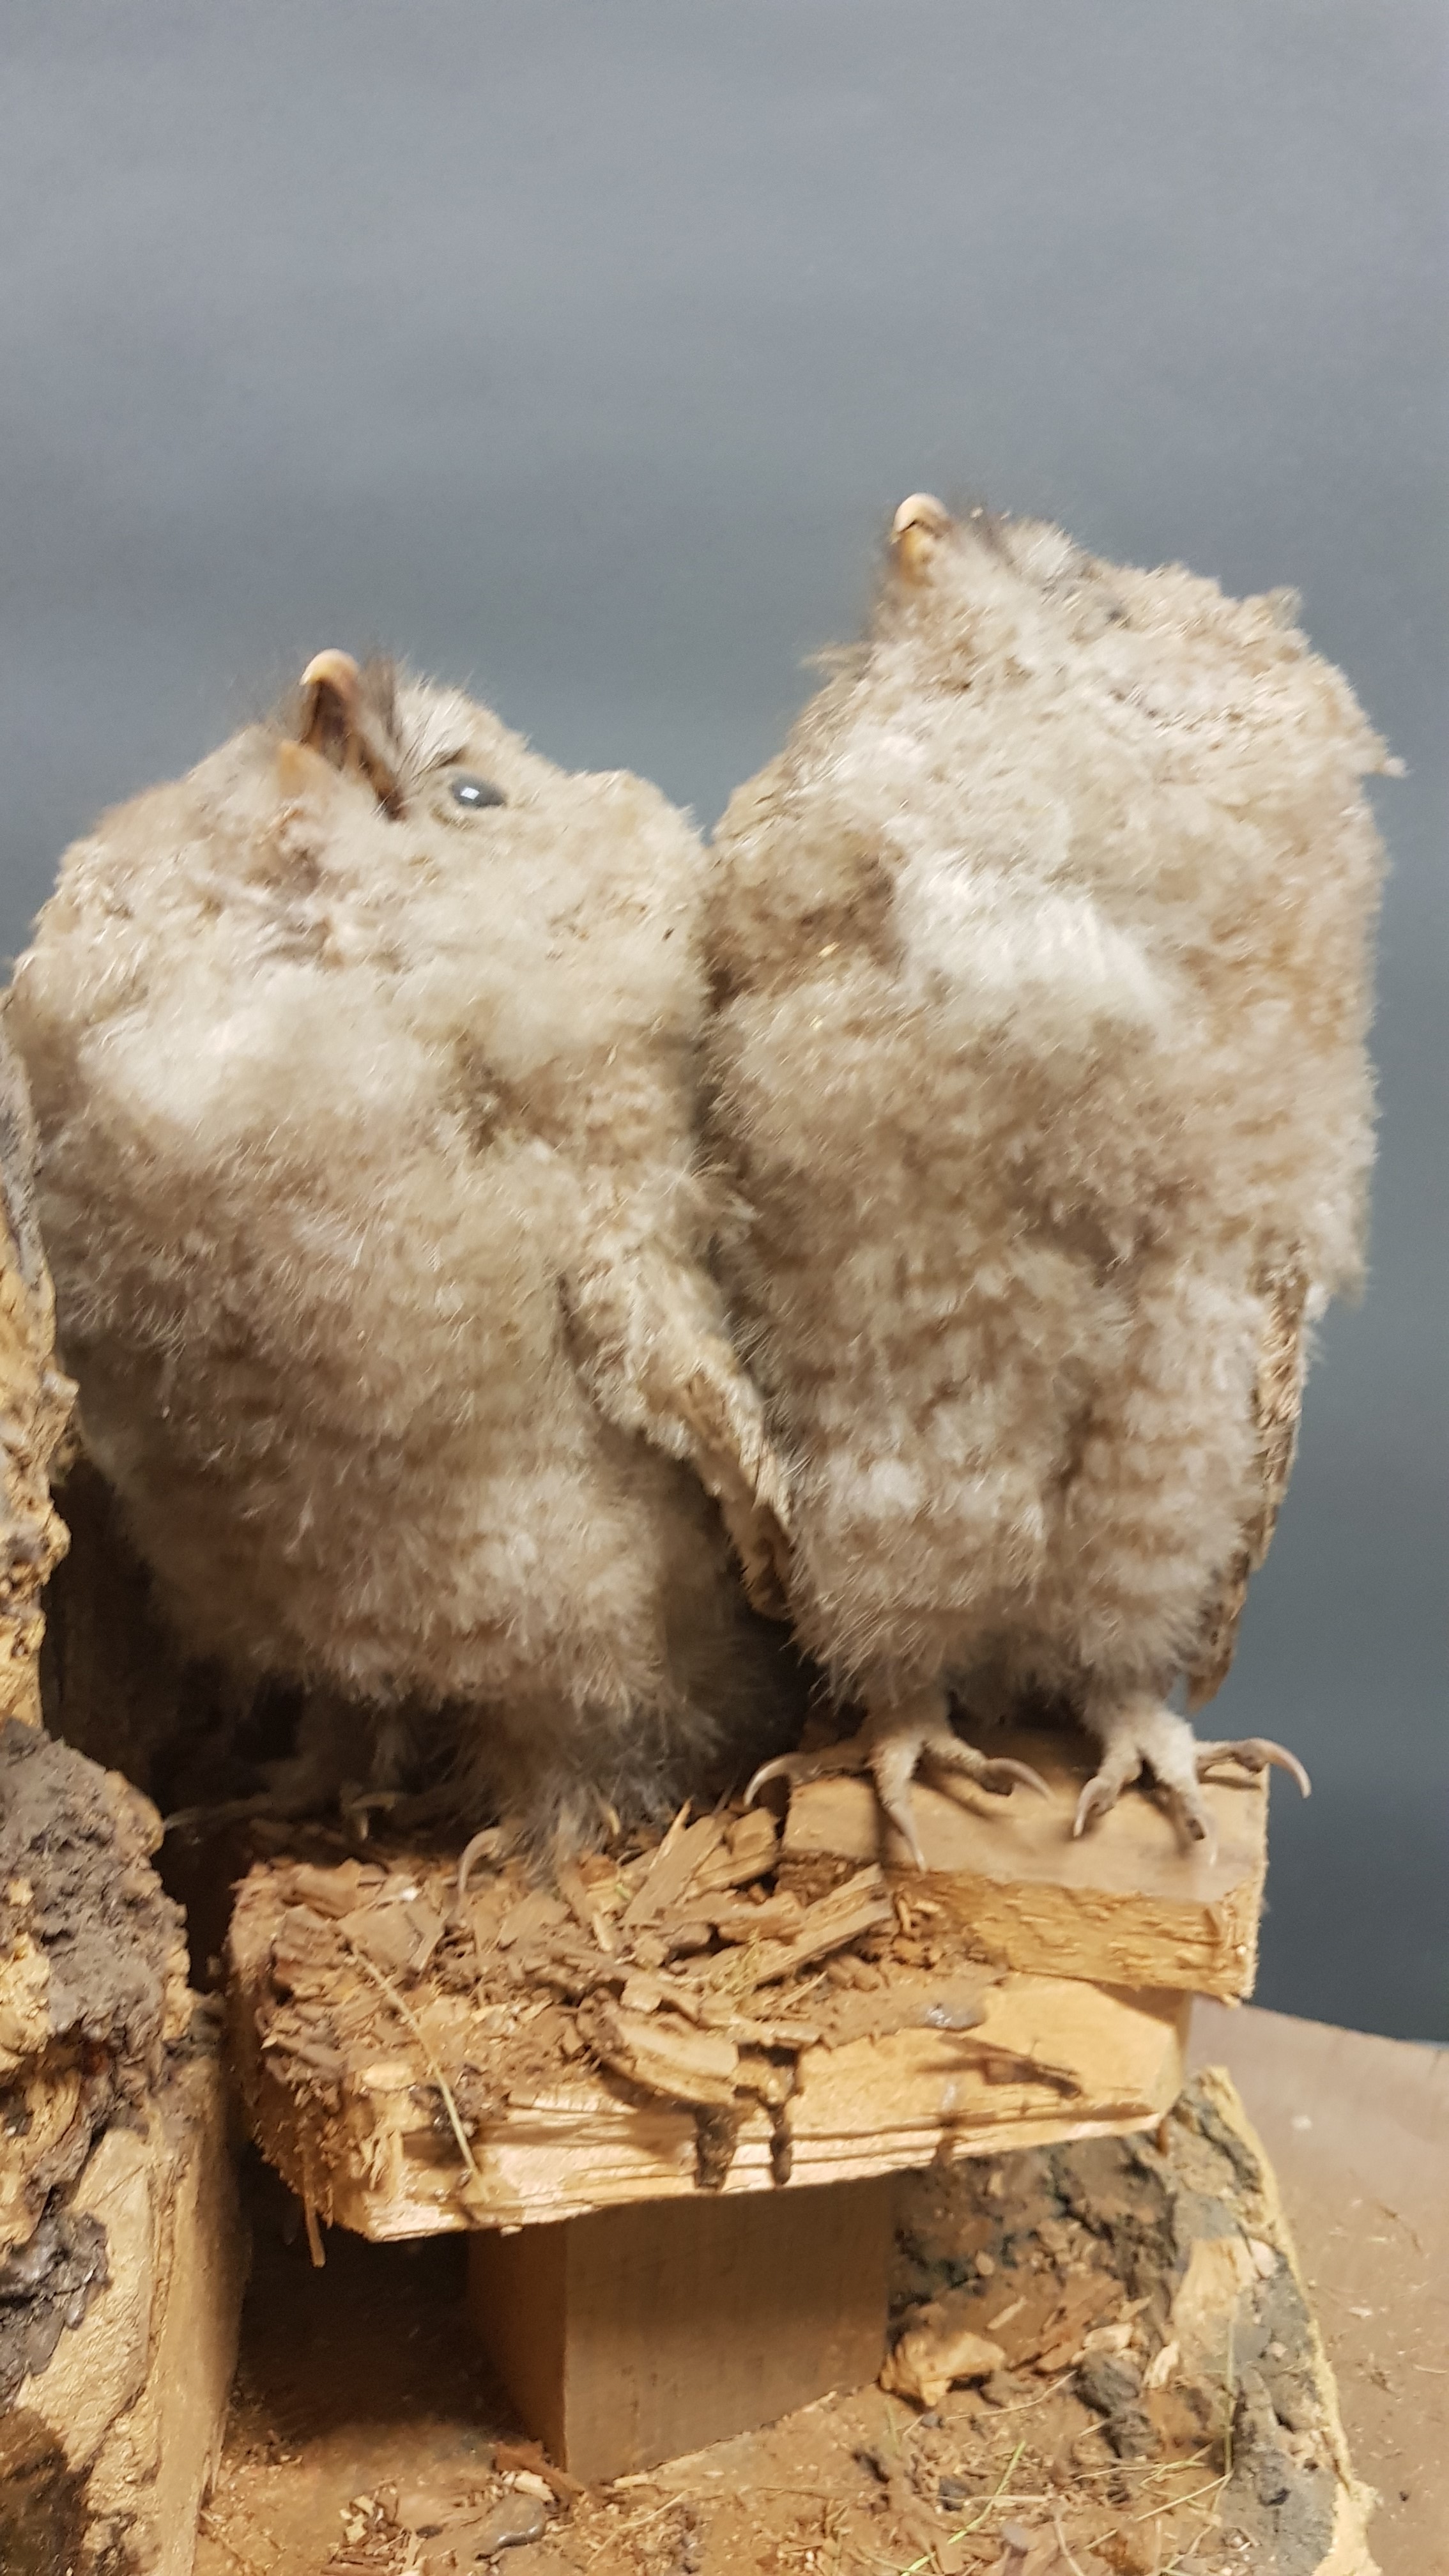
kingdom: Animalia
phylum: Chordata
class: Aves
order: Strigiformes
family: Strigidae
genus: Strix
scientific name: Strix aluco
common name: Tawny owl
